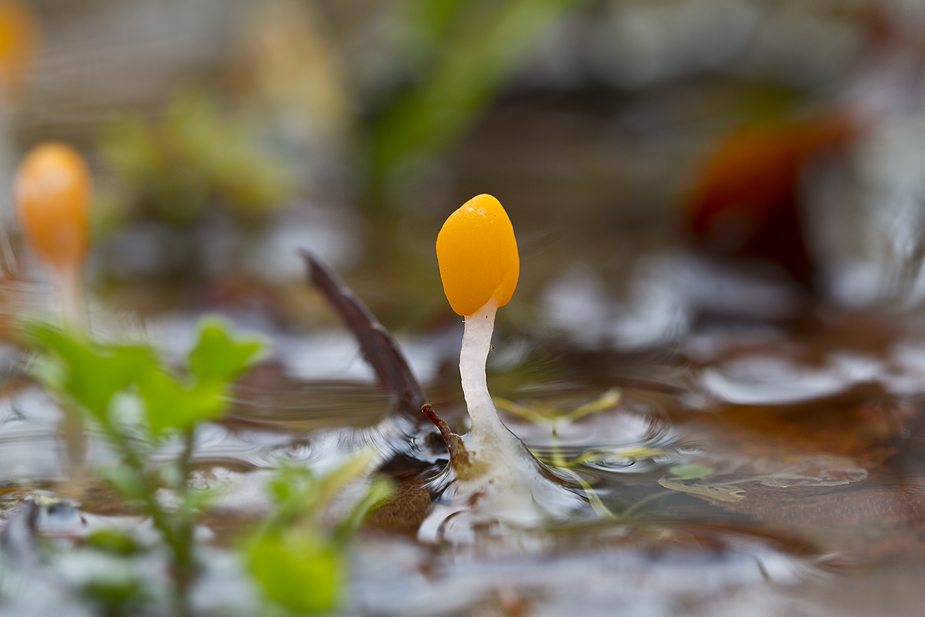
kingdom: Fungi
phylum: Ascomycota
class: Leotiomycetes
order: Helotiales
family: Cenangiaceae
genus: Mitrula
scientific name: Mitrula paludosa
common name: gul nøkketunge
